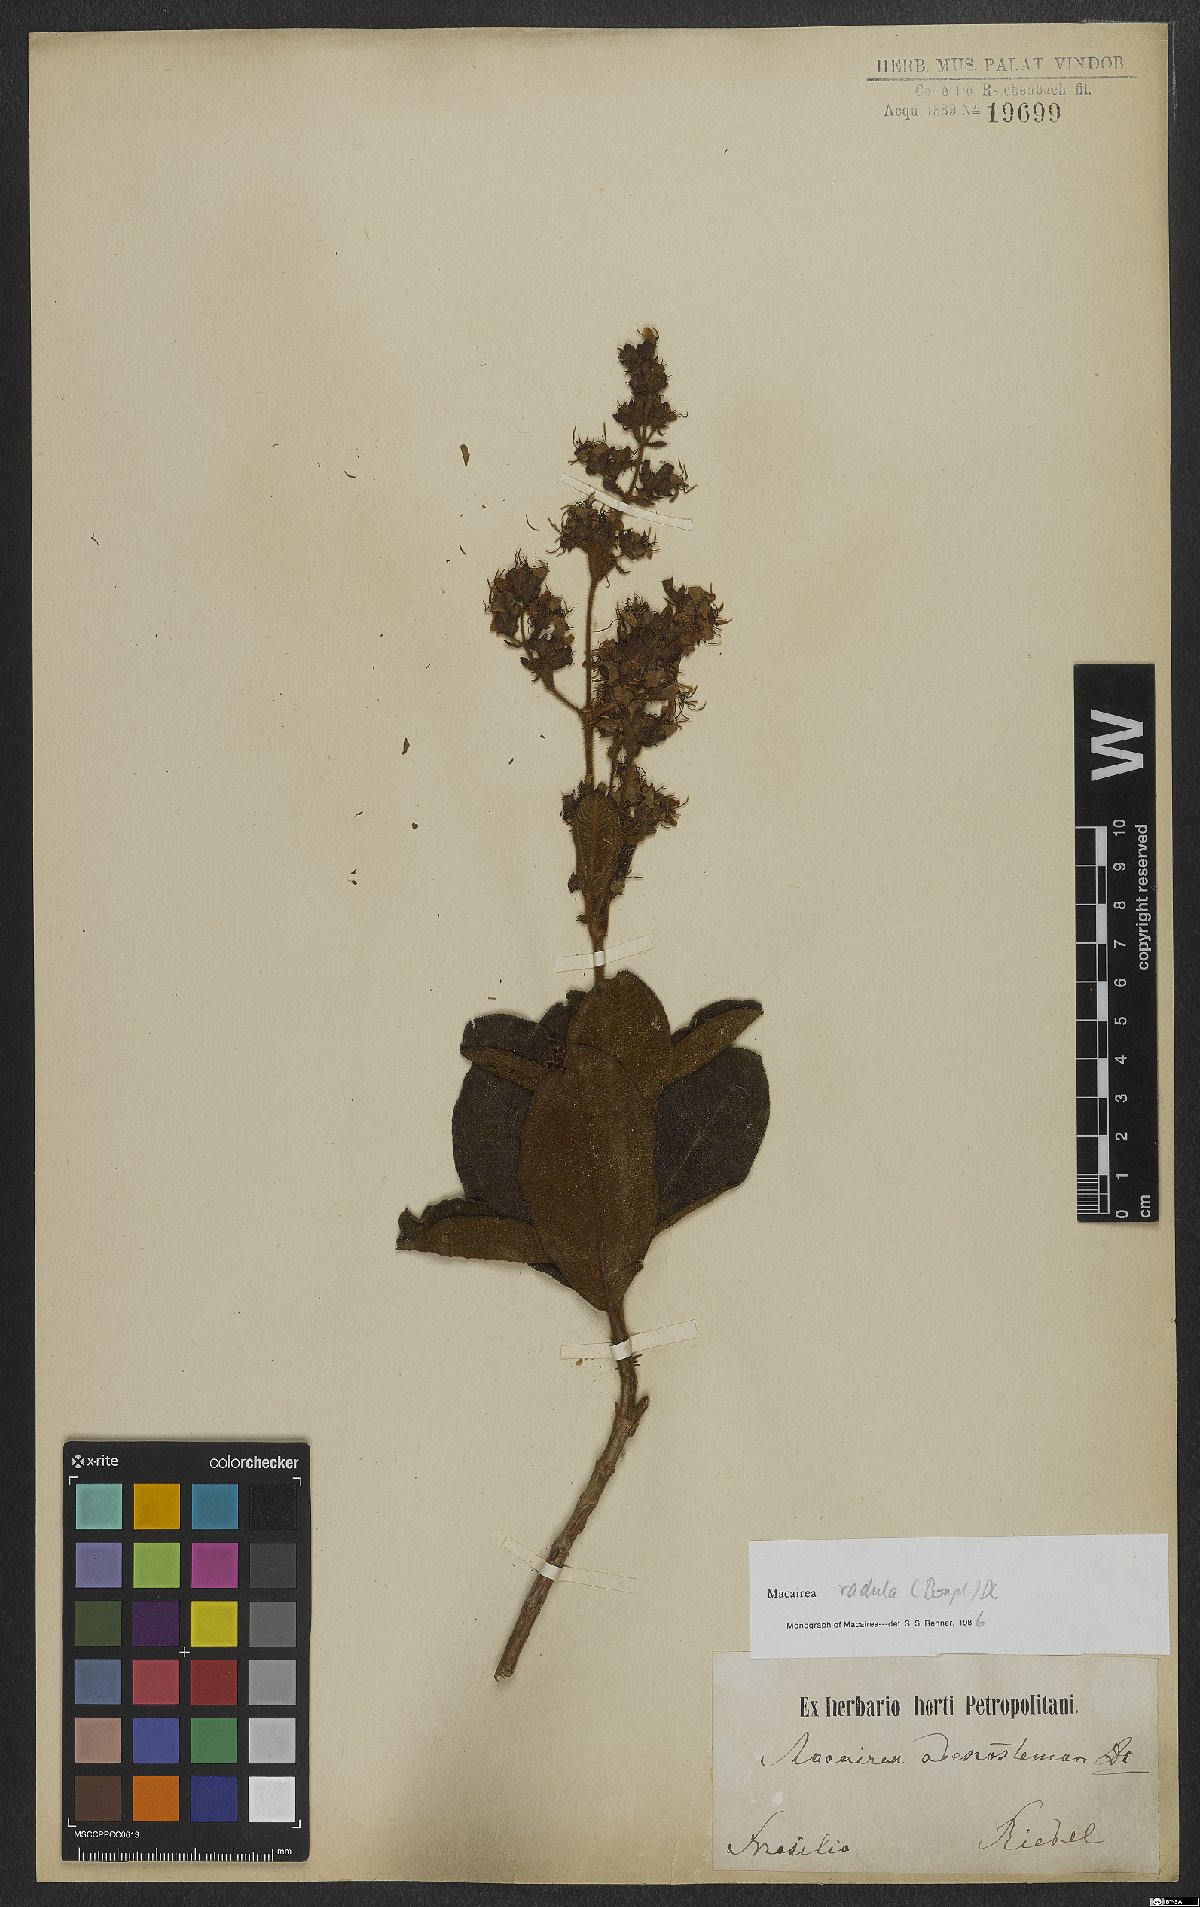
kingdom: Plantae
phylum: Tracheophyta
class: Magnoliopsida
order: Myrtales
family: Melastomataceae
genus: Macairea
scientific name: Macairea radula
